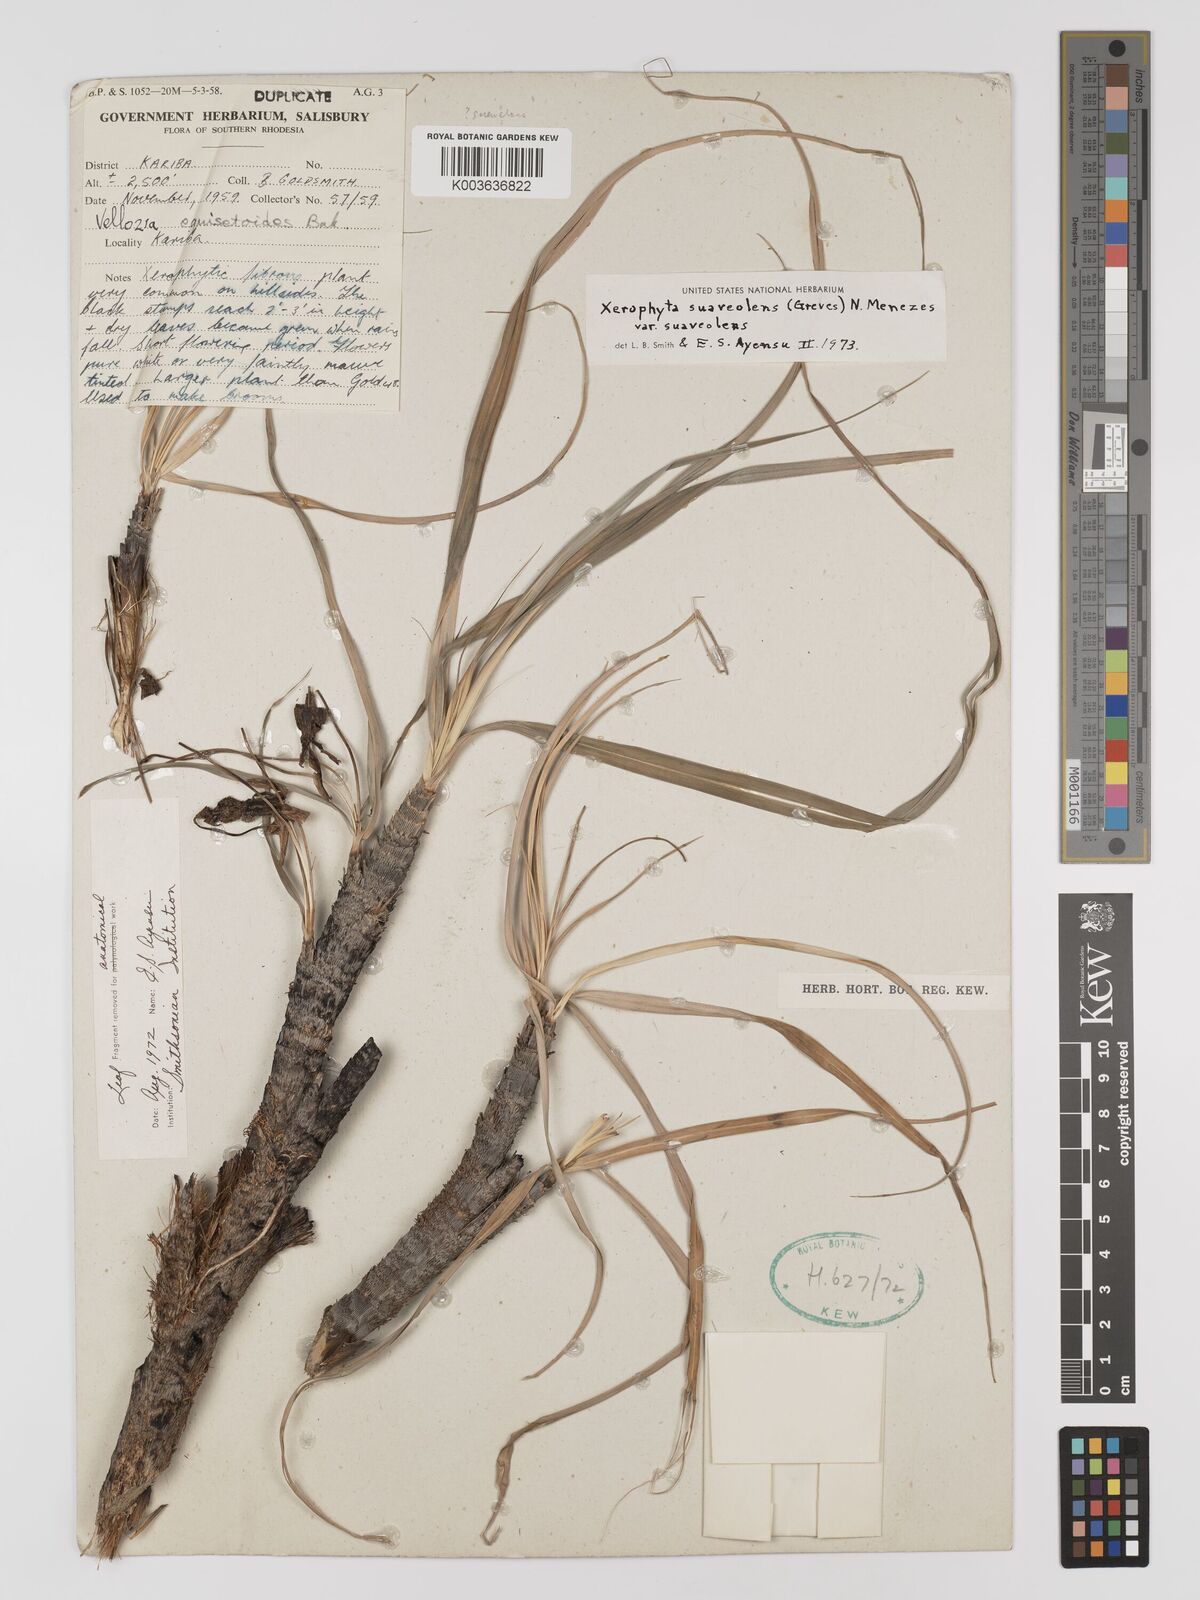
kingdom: Plantae
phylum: Tracheophyta
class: Liliopsida
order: Pandanales
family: Velloziaceae
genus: Xerophyta
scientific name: Xerophyta suaveolens
